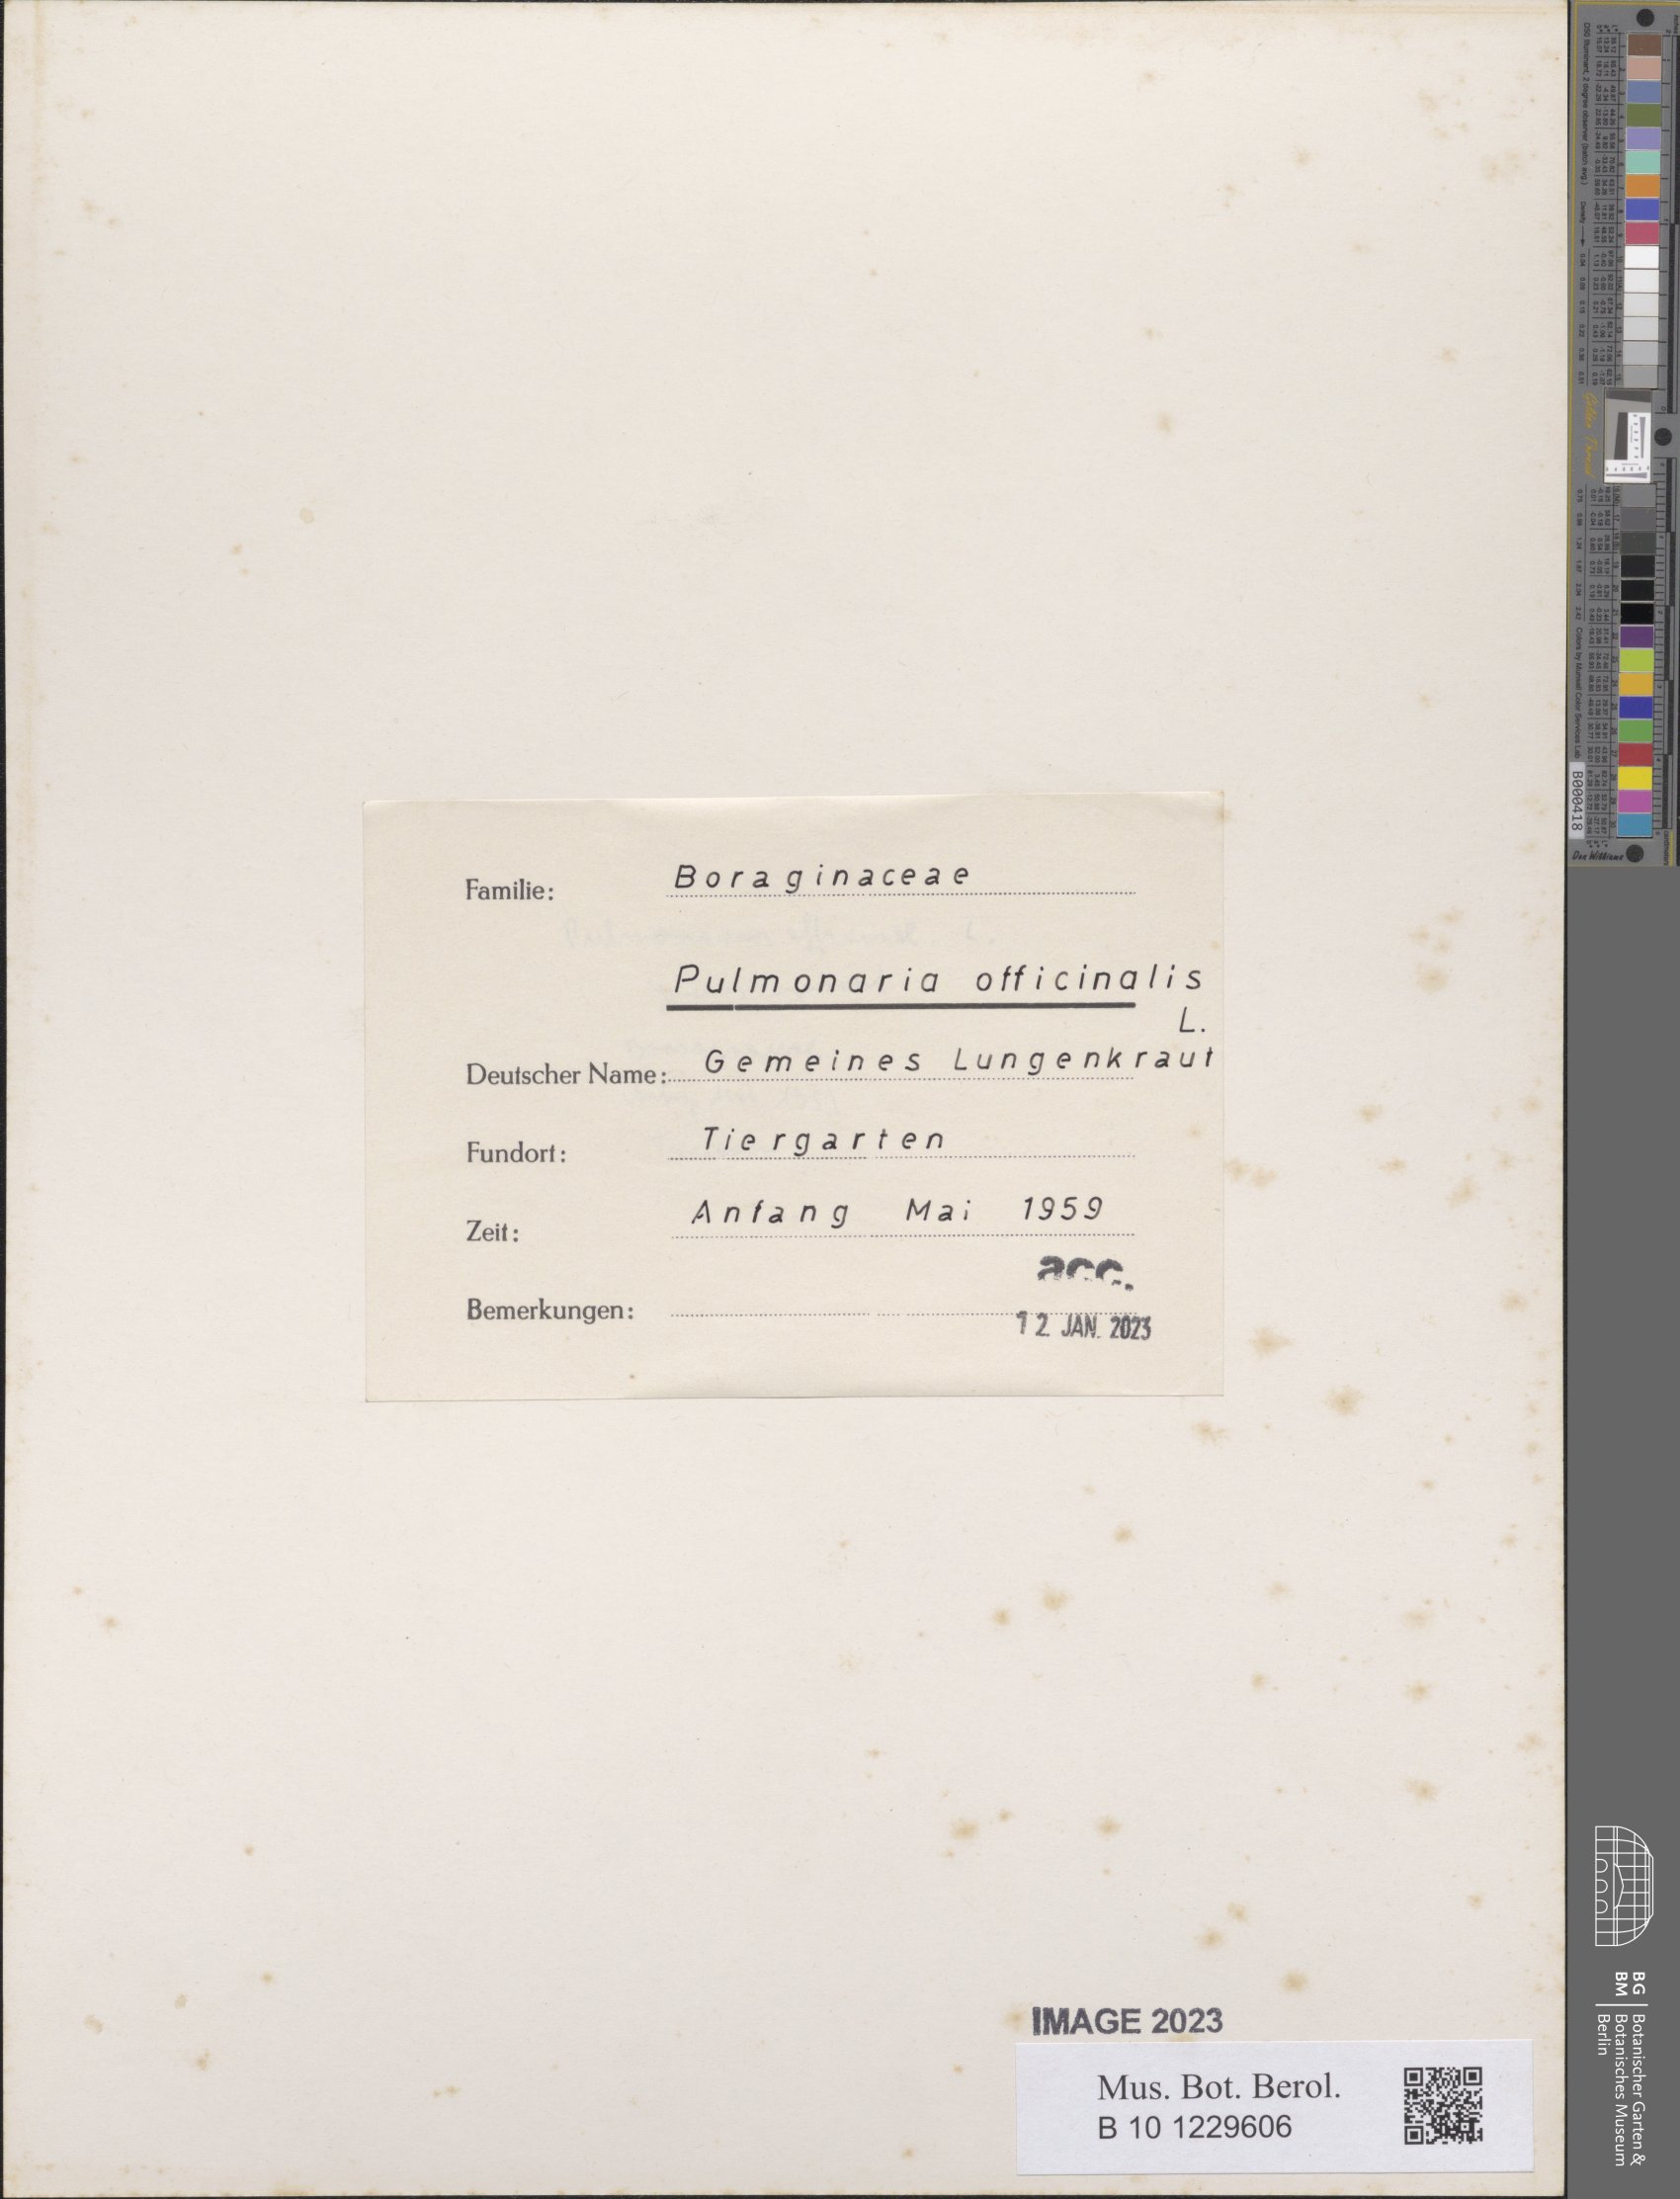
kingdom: Plantae
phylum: Tracheophyta
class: Magnoliopsida
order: Boraginales
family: Boraginaceae
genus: Pulmonaria
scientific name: Pulmonaria officinalis
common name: Lungwort
